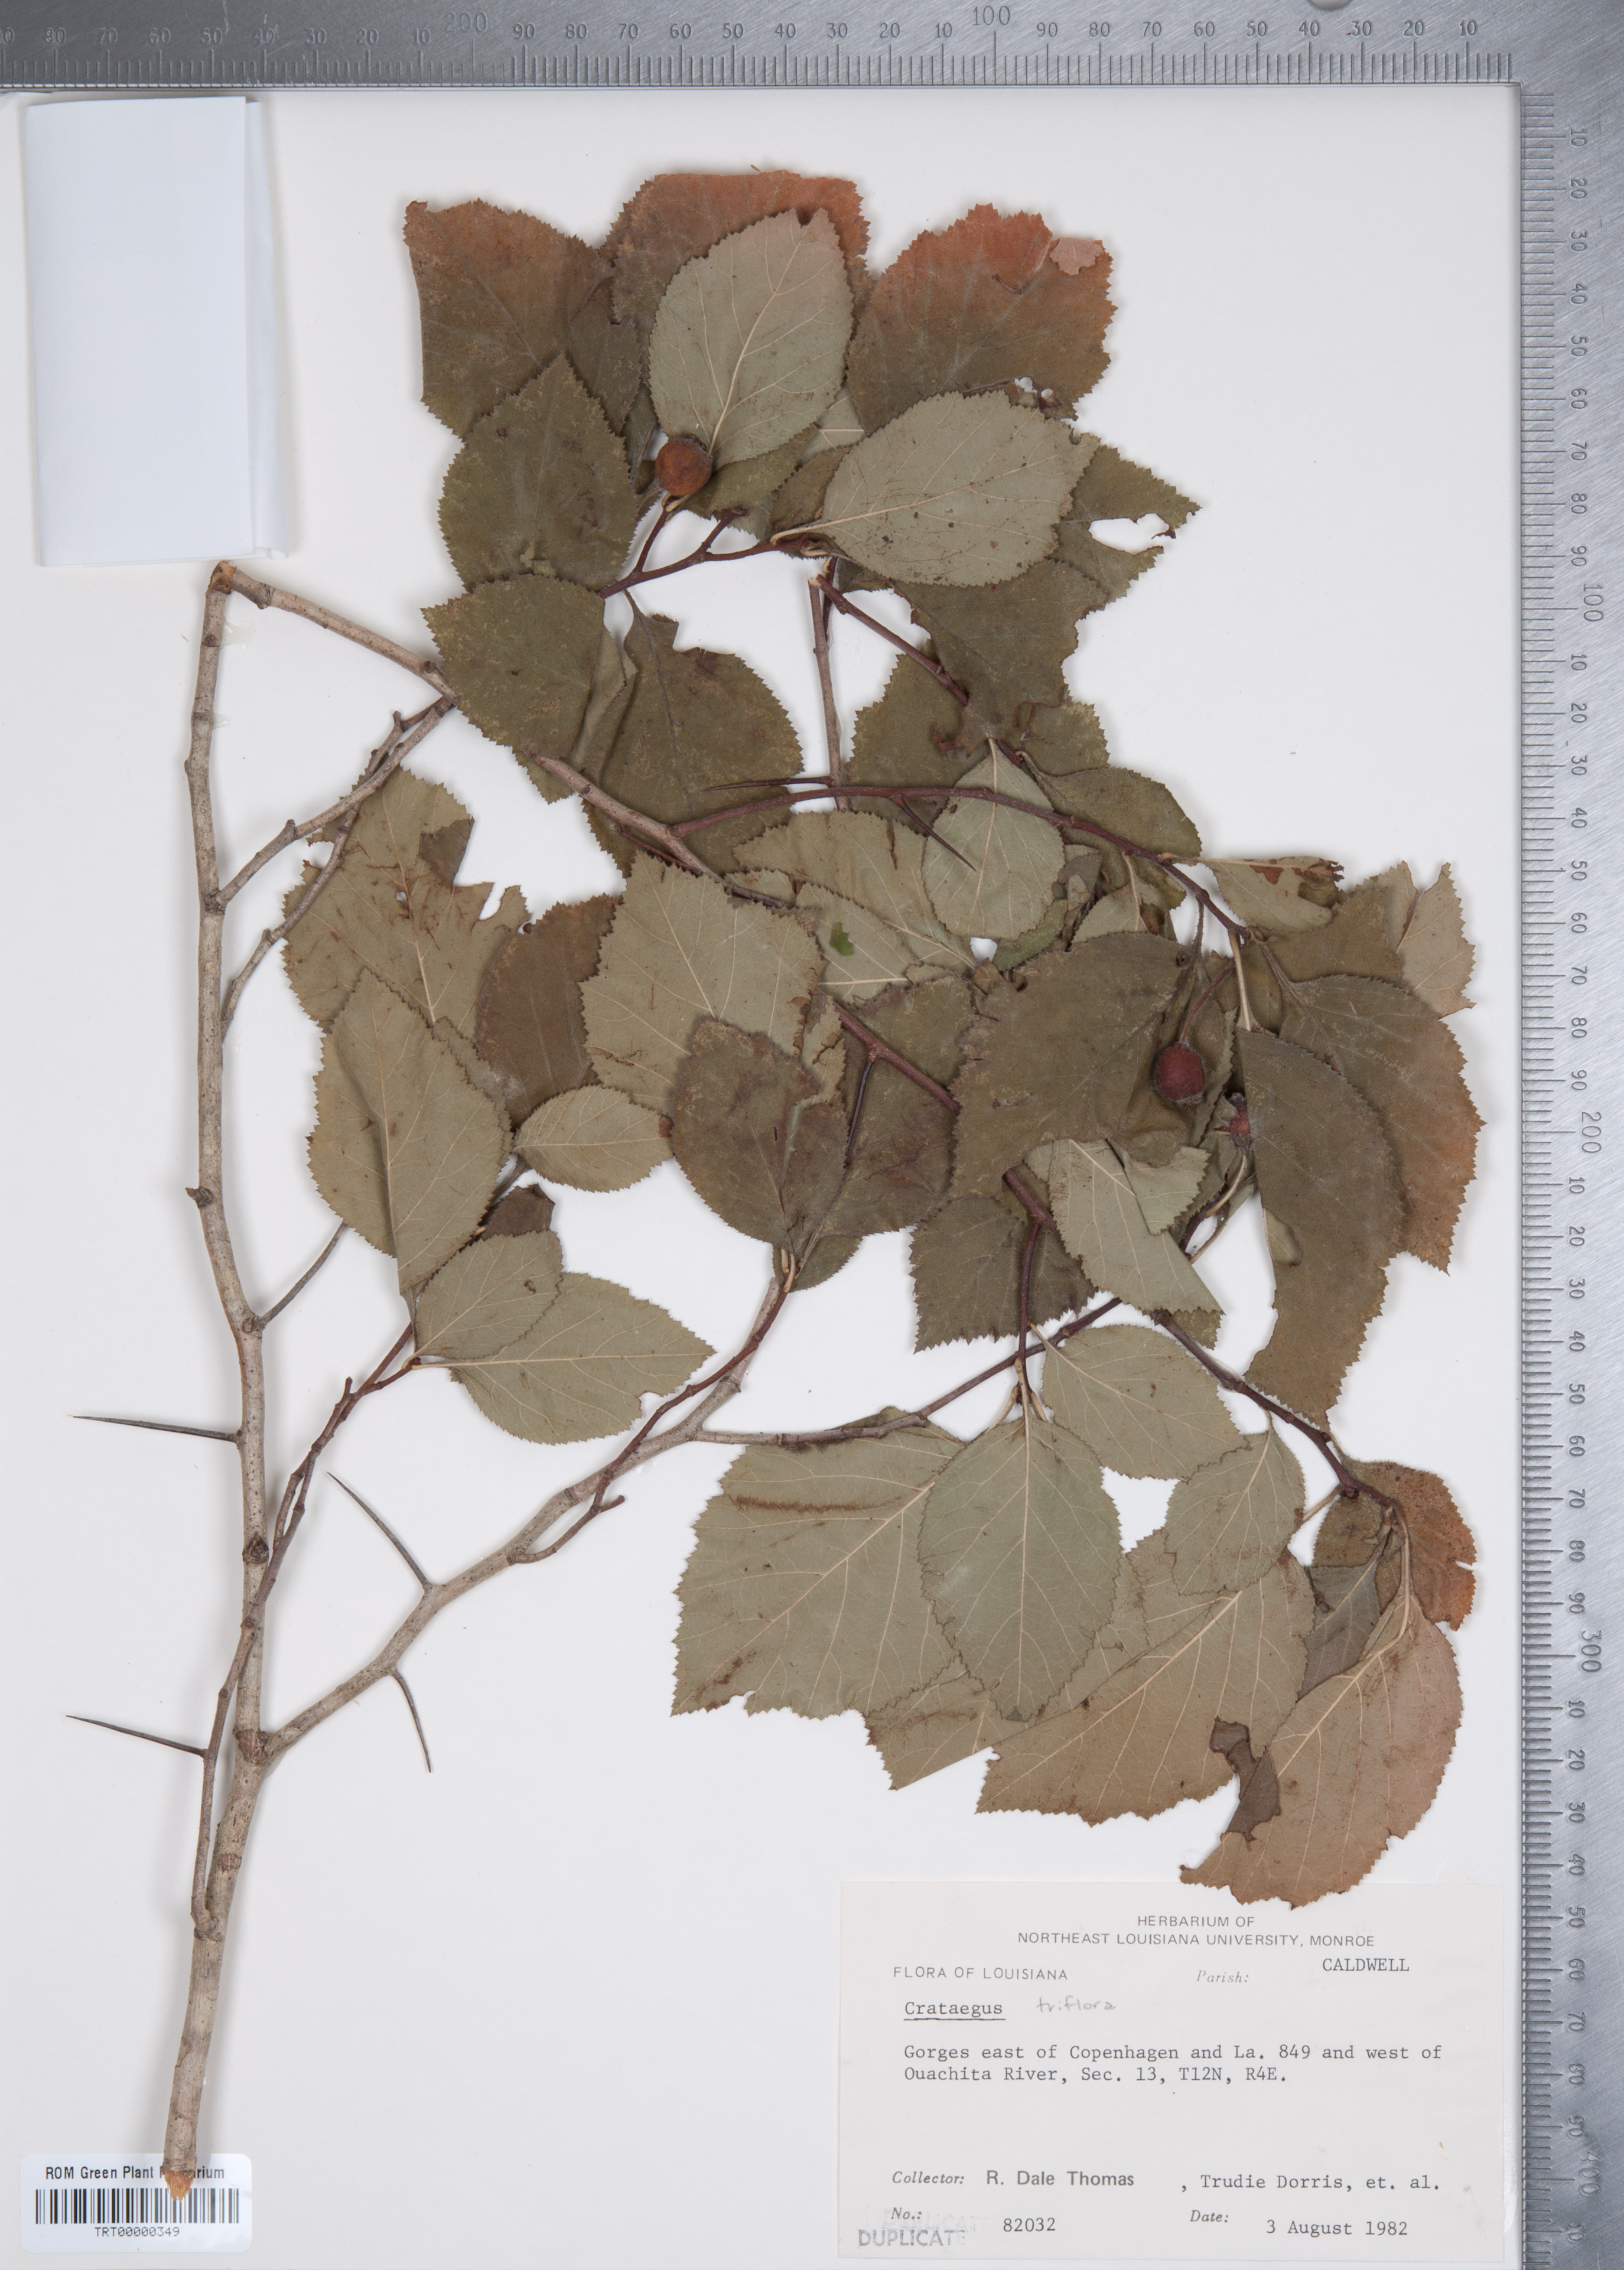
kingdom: Plantae
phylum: Tracheophyta
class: Magnoliopsida
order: Rosales
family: Rosaceae
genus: Crataegus
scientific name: Crataegus triflora
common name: Three-flower hawthorn
